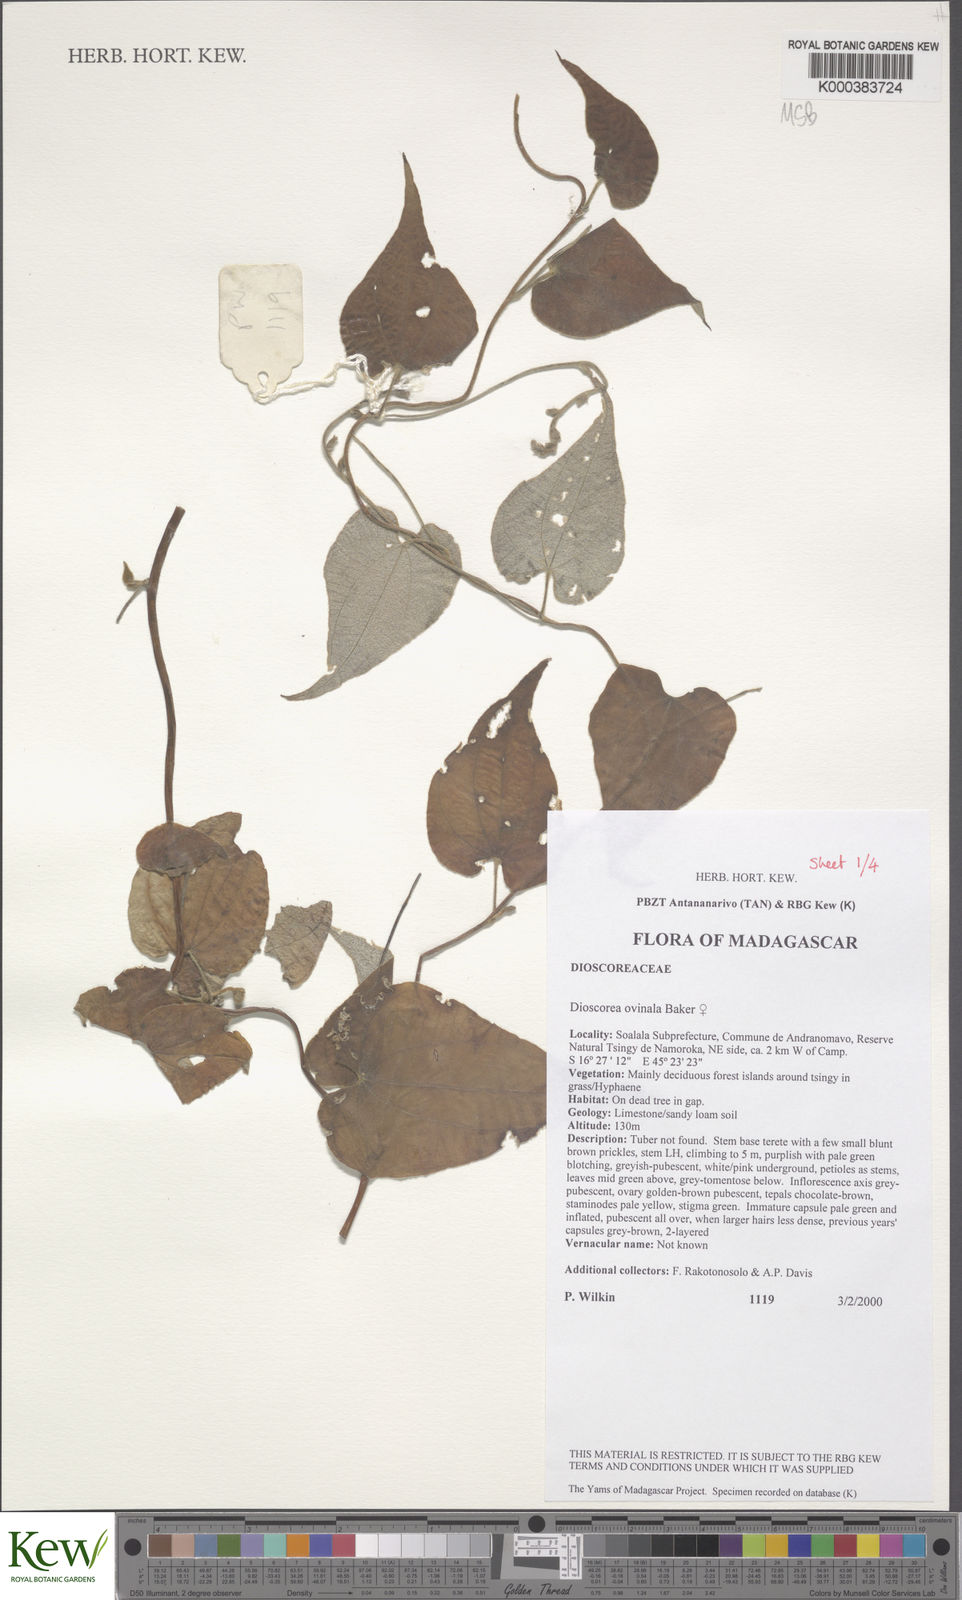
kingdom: Plantae
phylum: Tracheophyta
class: Liliopsida
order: Dioscoreales
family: Dioscoreaceae
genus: Dioscorea
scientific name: Dioscorea ovinala
